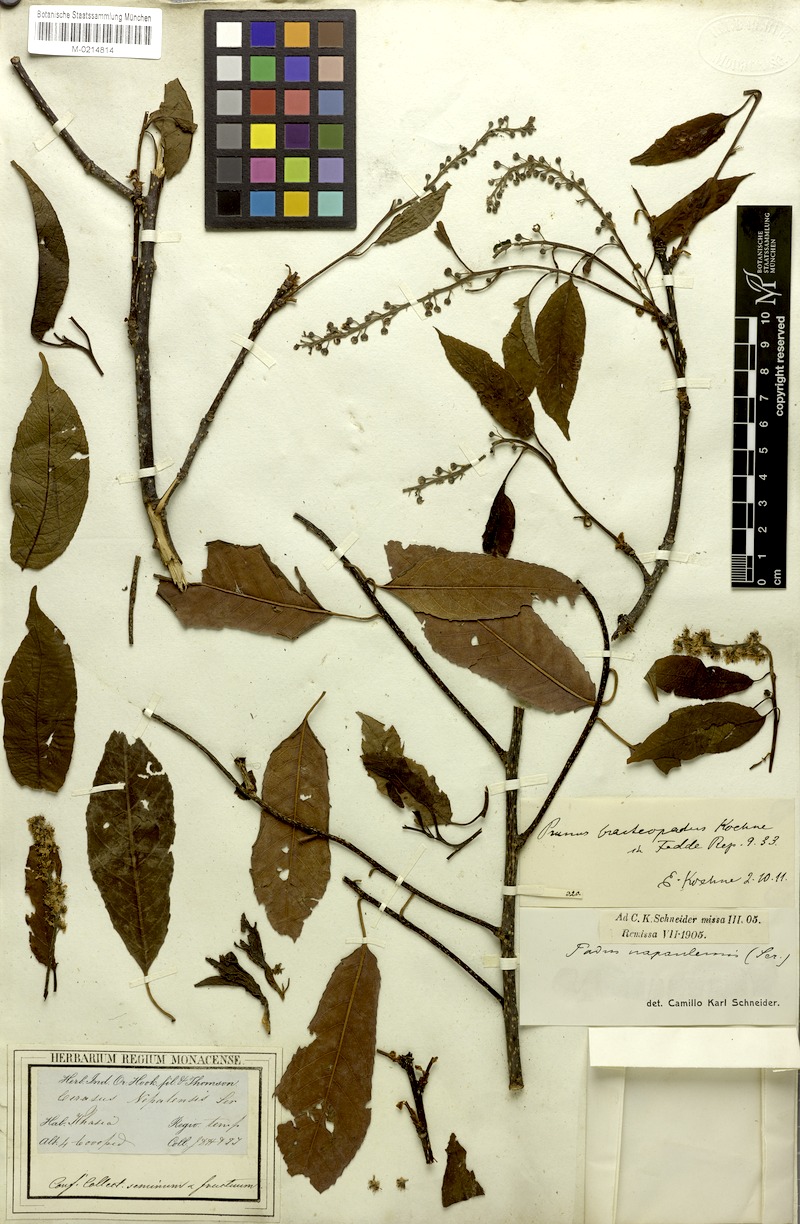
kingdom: Plantae
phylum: Tracheophyta
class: Magnoliopsida
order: Rosales
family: Rosaceae
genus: Prunus
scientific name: Prunus napaulensis
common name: Khasia cherry
